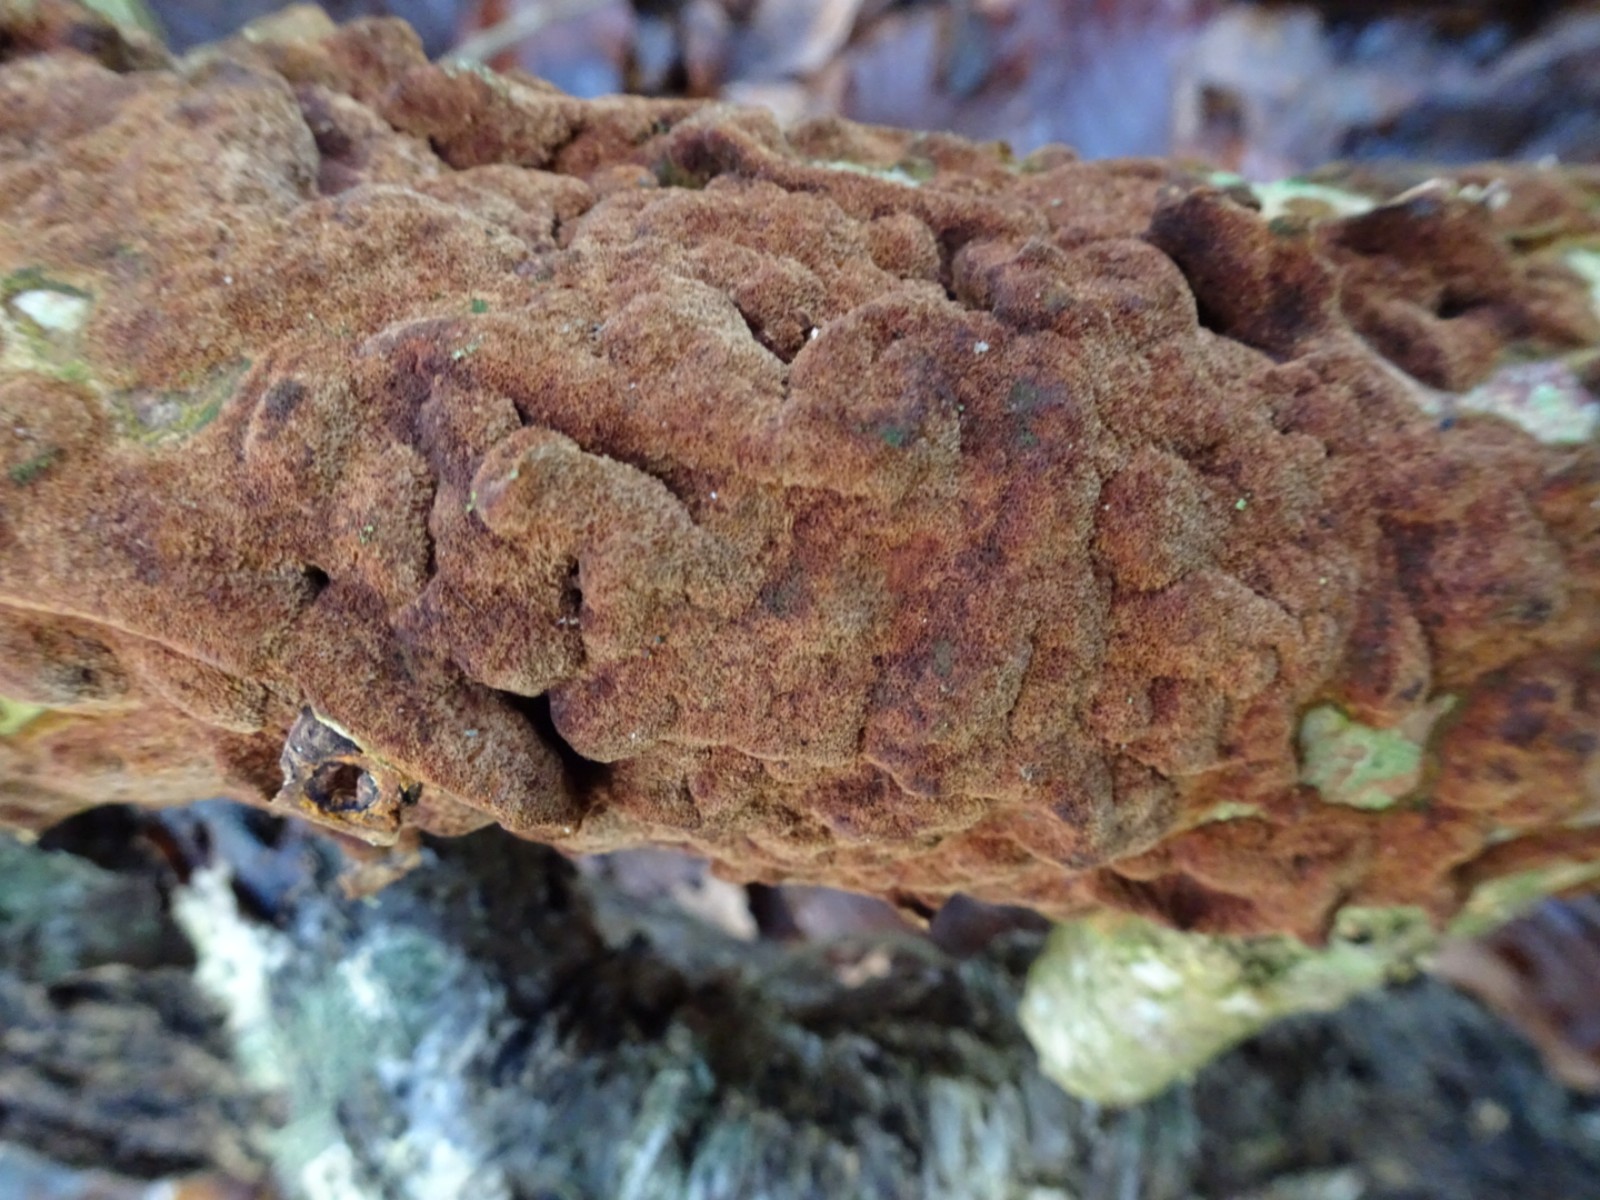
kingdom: Fungi
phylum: Basidiomycota
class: Agaricomycetes
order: Hymenochaetales
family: Hymenochaetaceae
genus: Fuscoporia
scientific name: Fuscoporia ferrea
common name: skorpe-ildporesvamp
